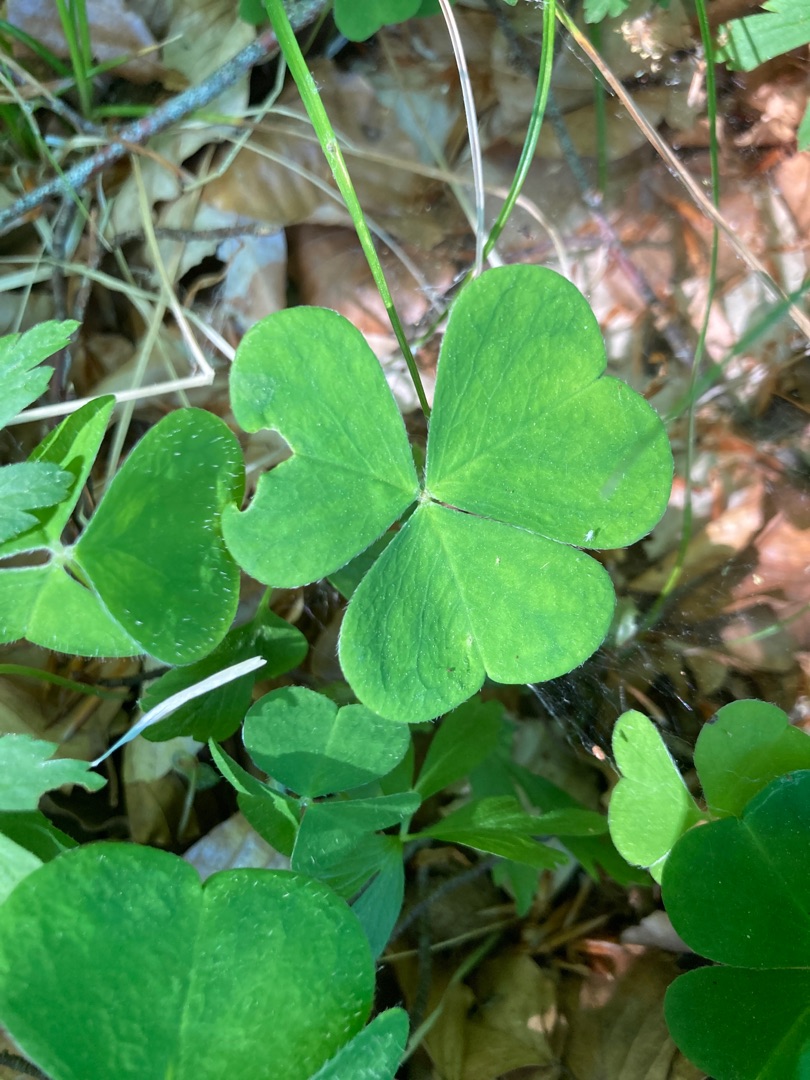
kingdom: Plantae
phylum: Tracheophyta
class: Magnoliopsida
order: Oxalidales
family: Oxalidaceae
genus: Oxalis
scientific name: Oxalis acetosella
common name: Skovsyre
